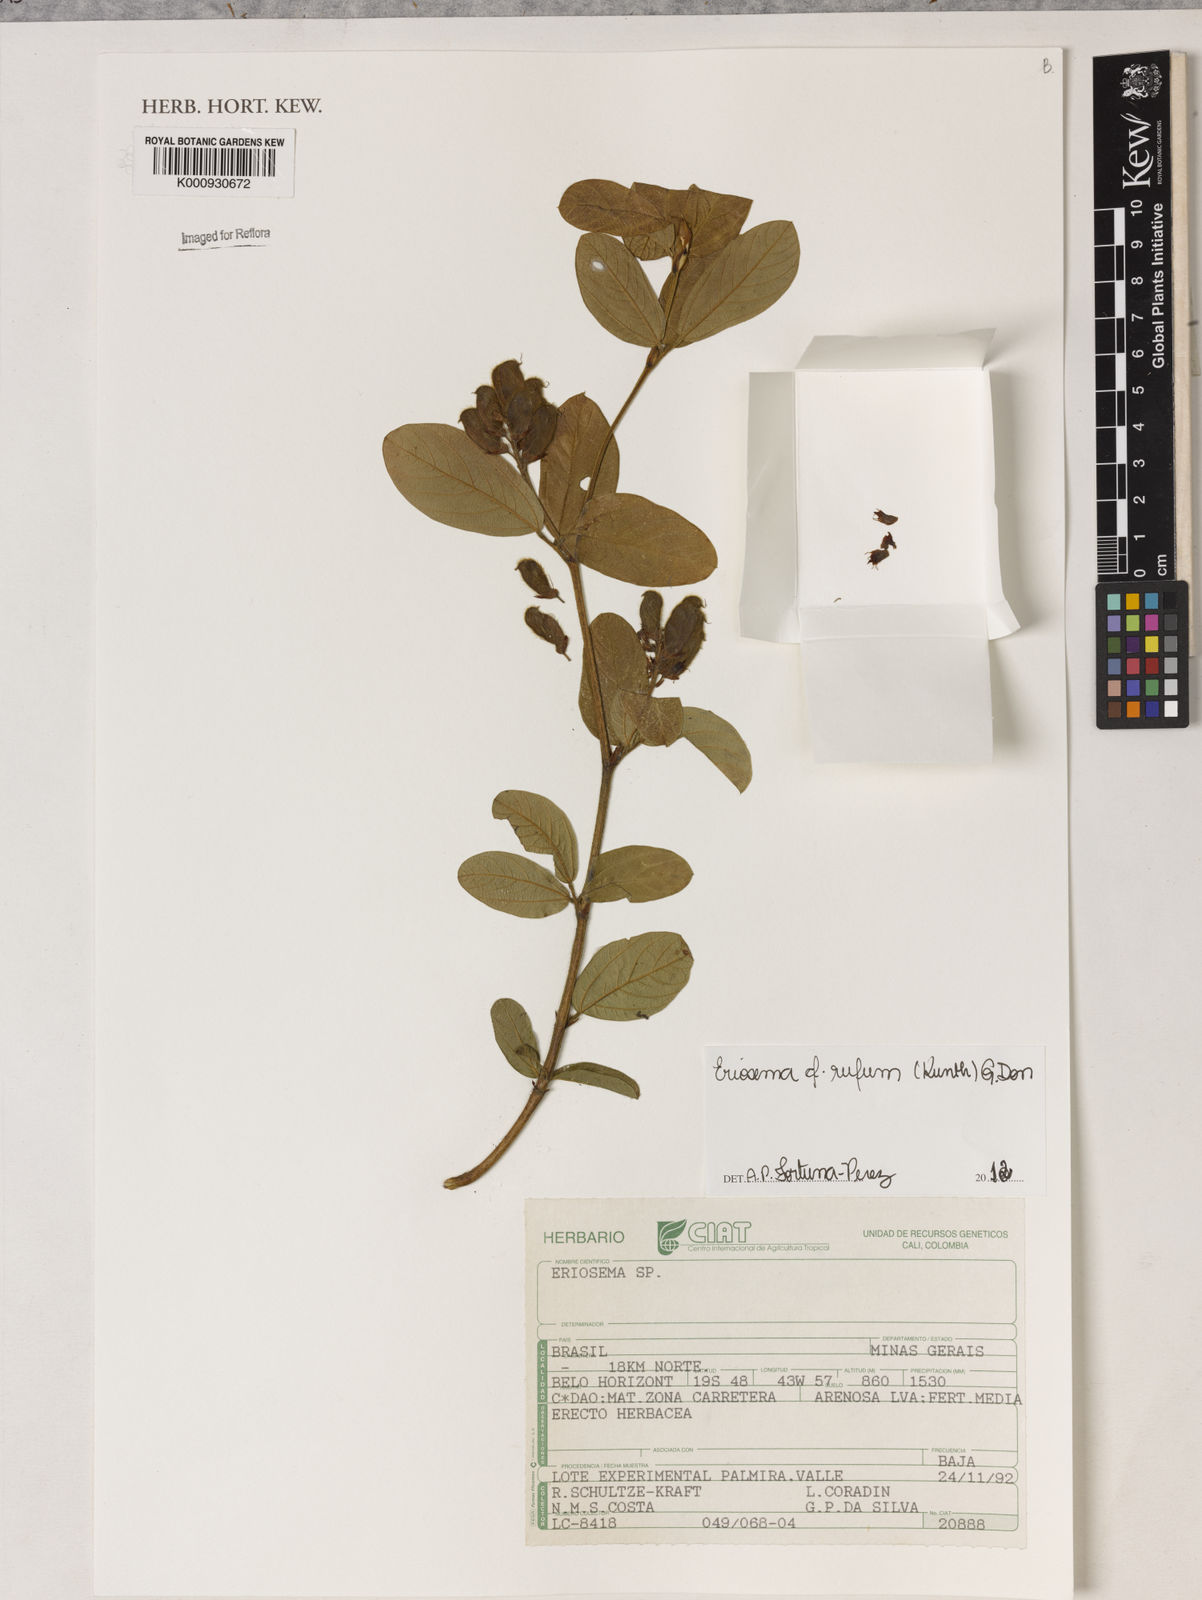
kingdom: Plantae
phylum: Tracheophyta
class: Magnoliopsida
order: Fabales
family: Fabaceae
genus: Eriosema
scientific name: Eriosema rufum
